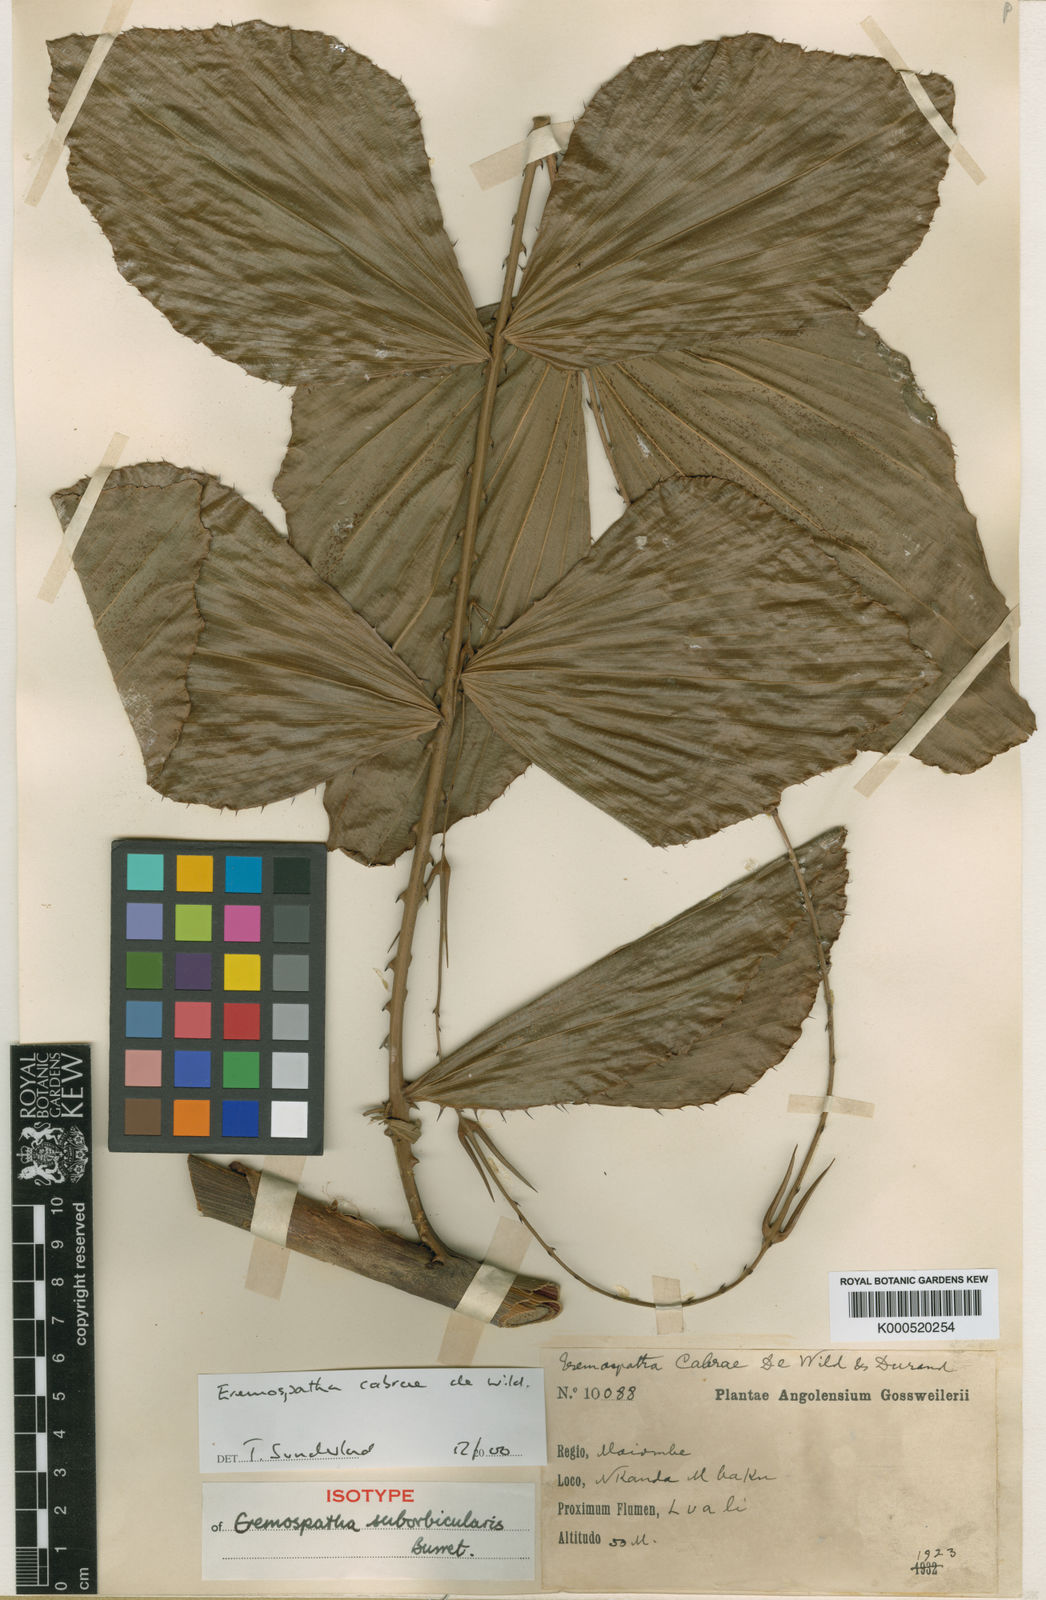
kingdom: Plantae
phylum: Tracheophyta
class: Liliopsida
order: Arecales
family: Arecaceae
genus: Eremospatha
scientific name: Eremospatha cabrae
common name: Rattan
